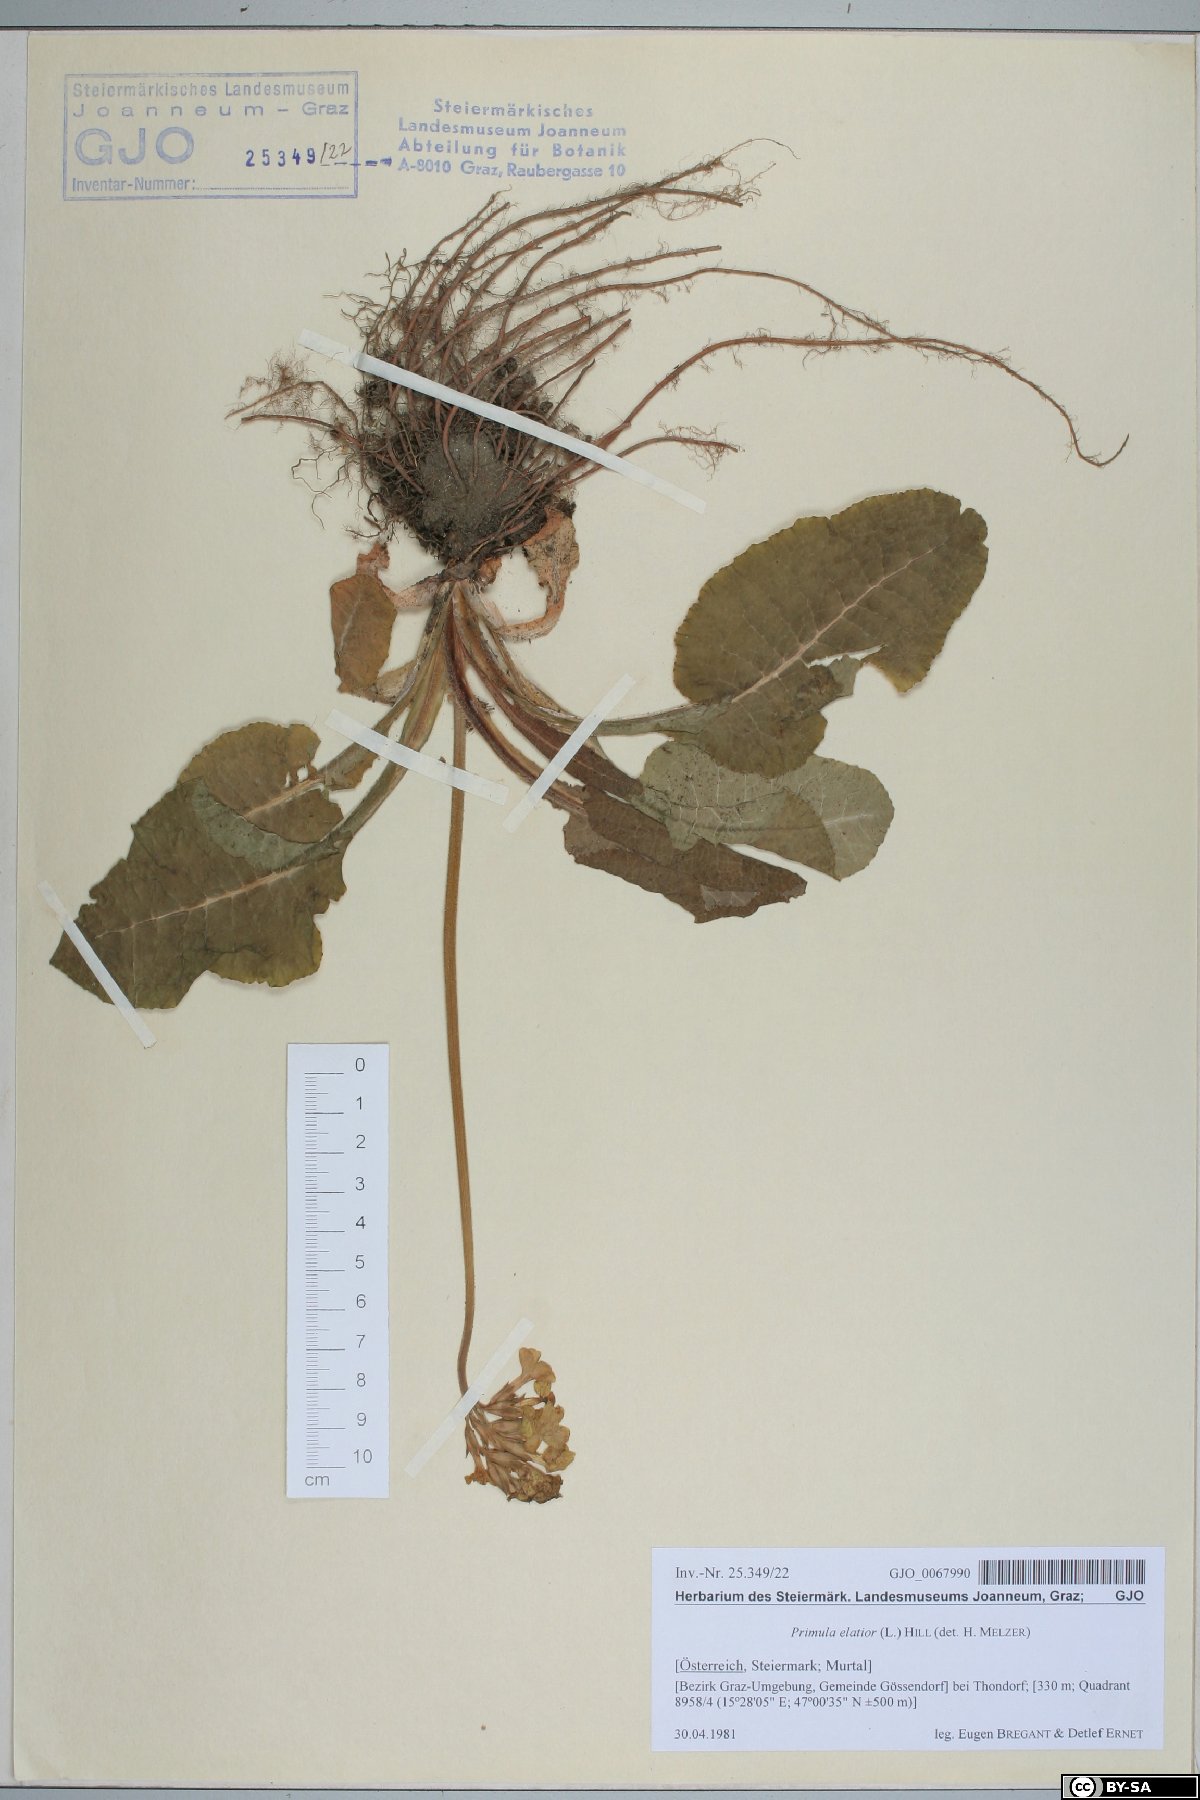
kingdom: Plantae
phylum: Tracheophyta
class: Magnoliopsida
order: Ericales
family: Primulaceae
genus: Primula
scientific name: Primula elatior
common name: Oxlip
